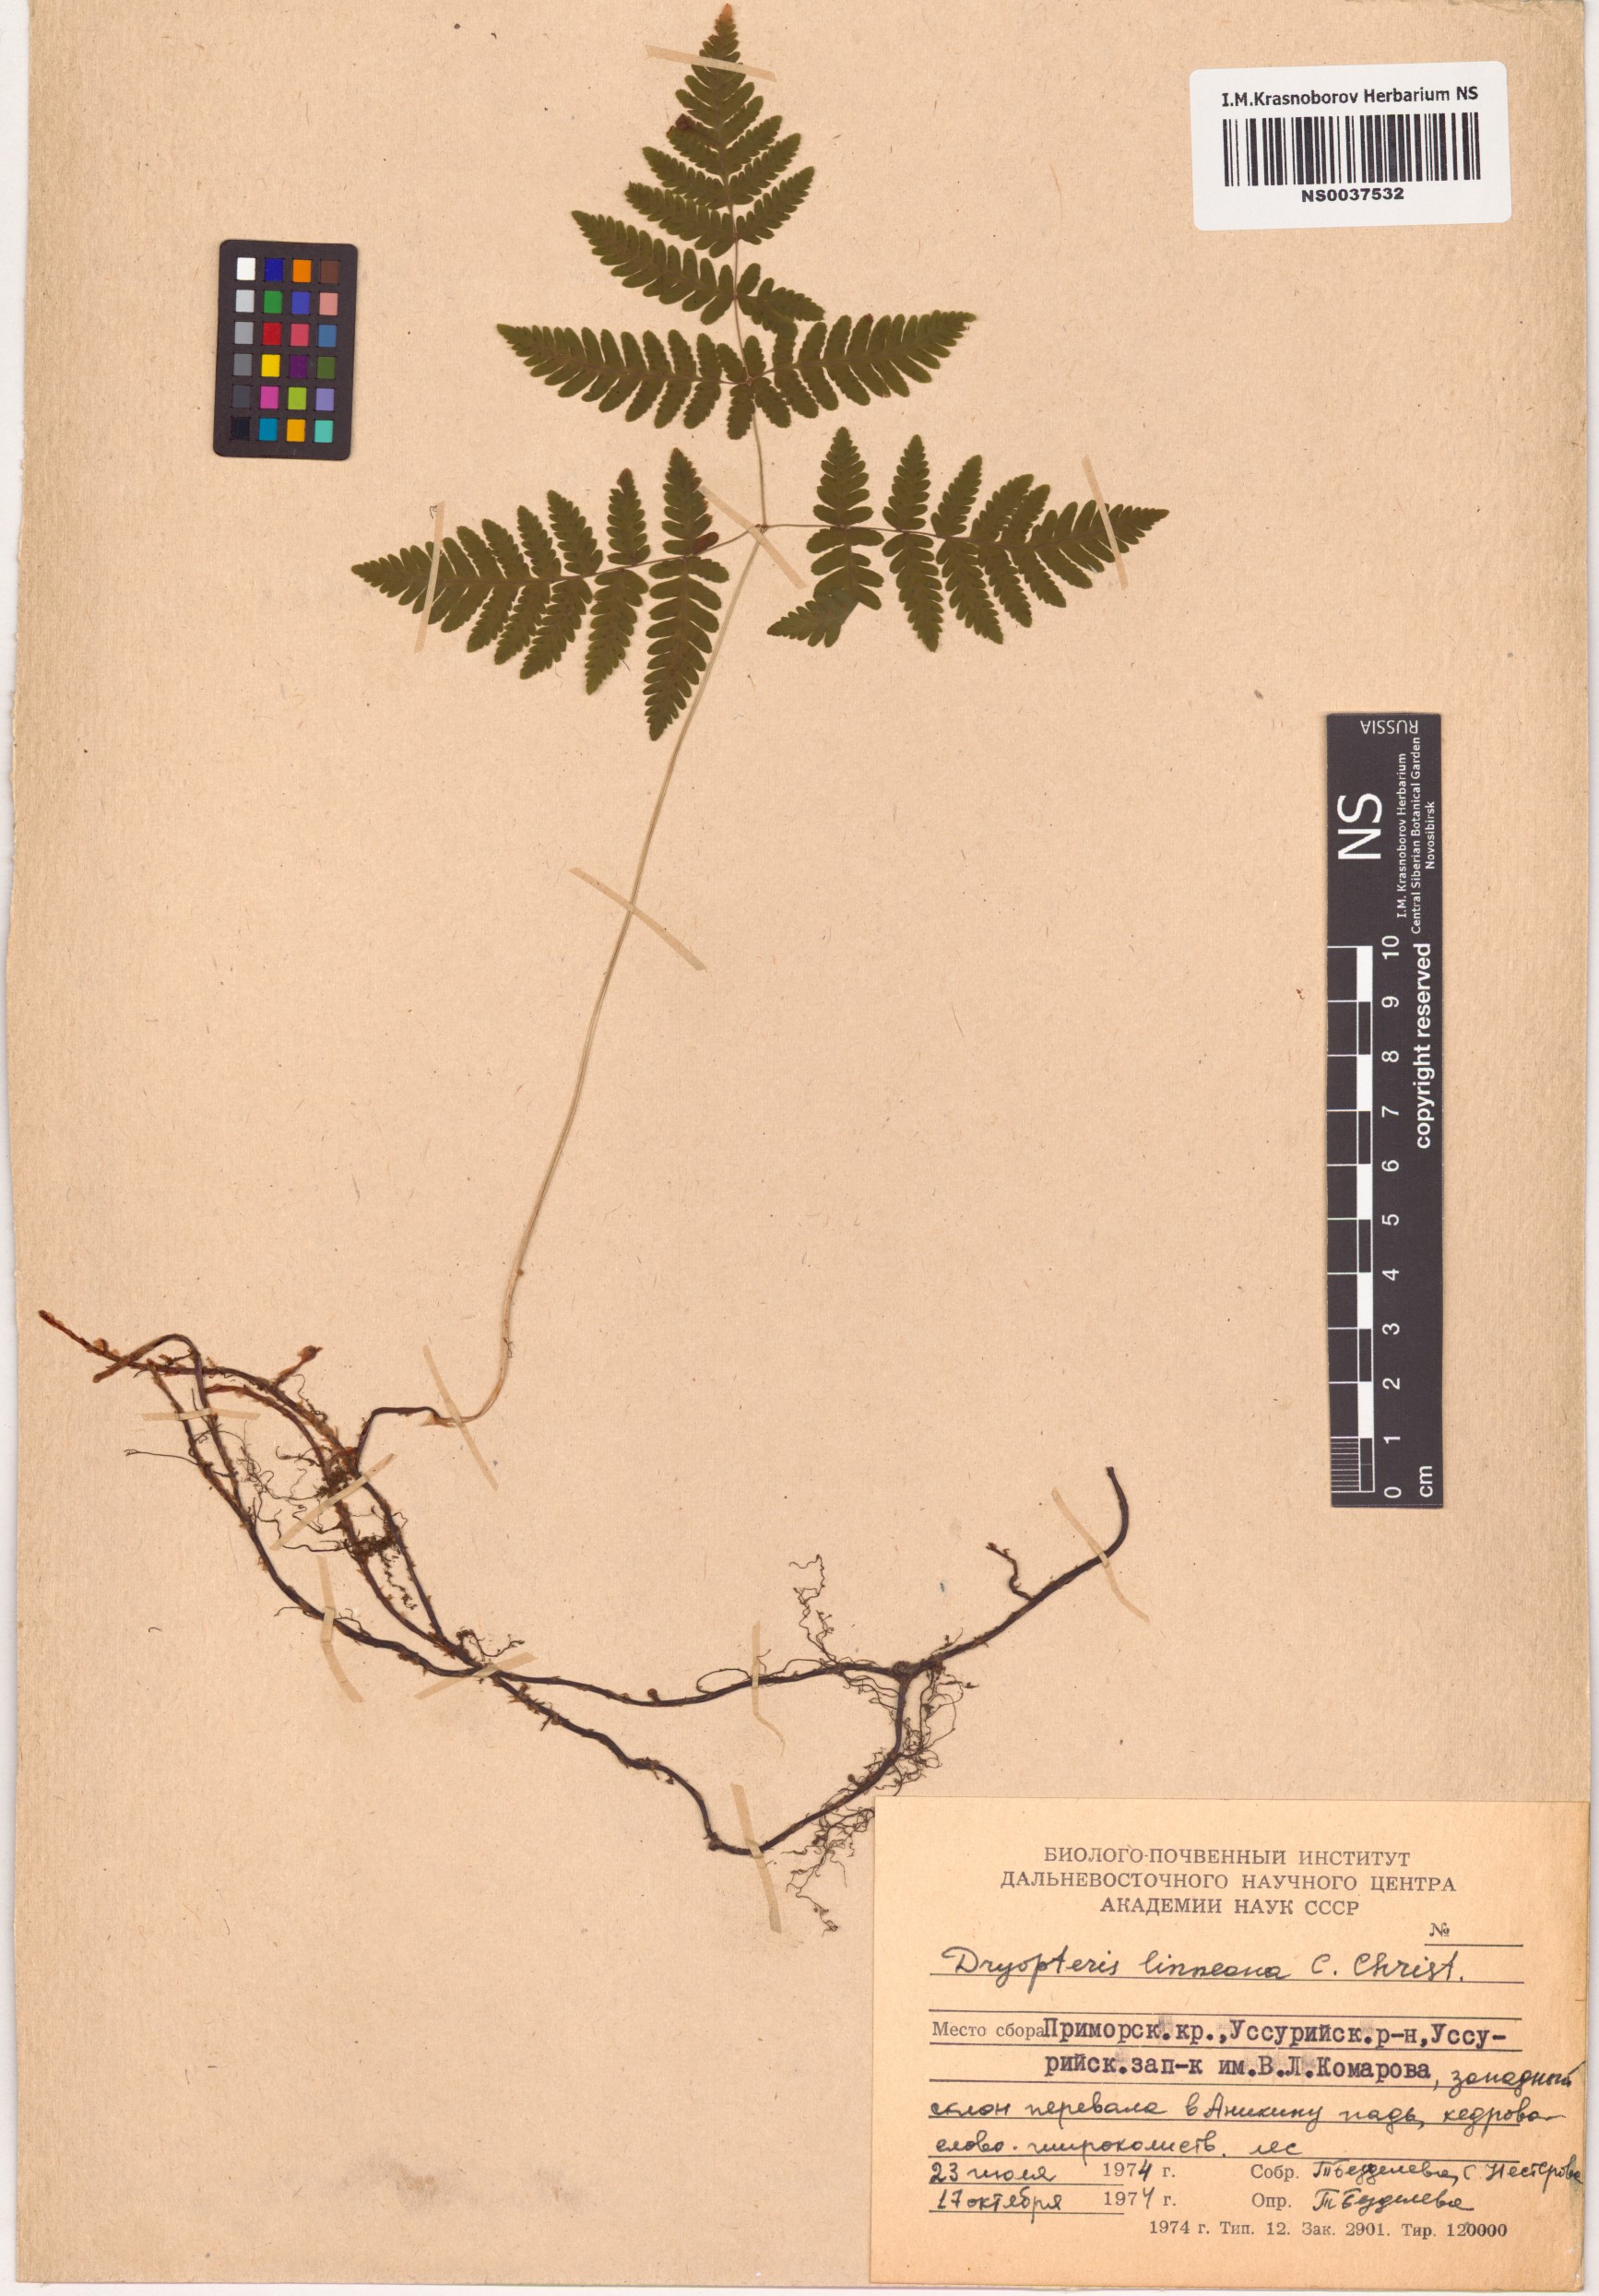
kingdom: Plantae
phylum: Tracheophyta
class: Polypodiopsida
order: Polypodiales
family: Cystopteridaceae
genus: Gymnocarpium
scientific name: Gymnocarpium dryopteris
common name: Oak fern
